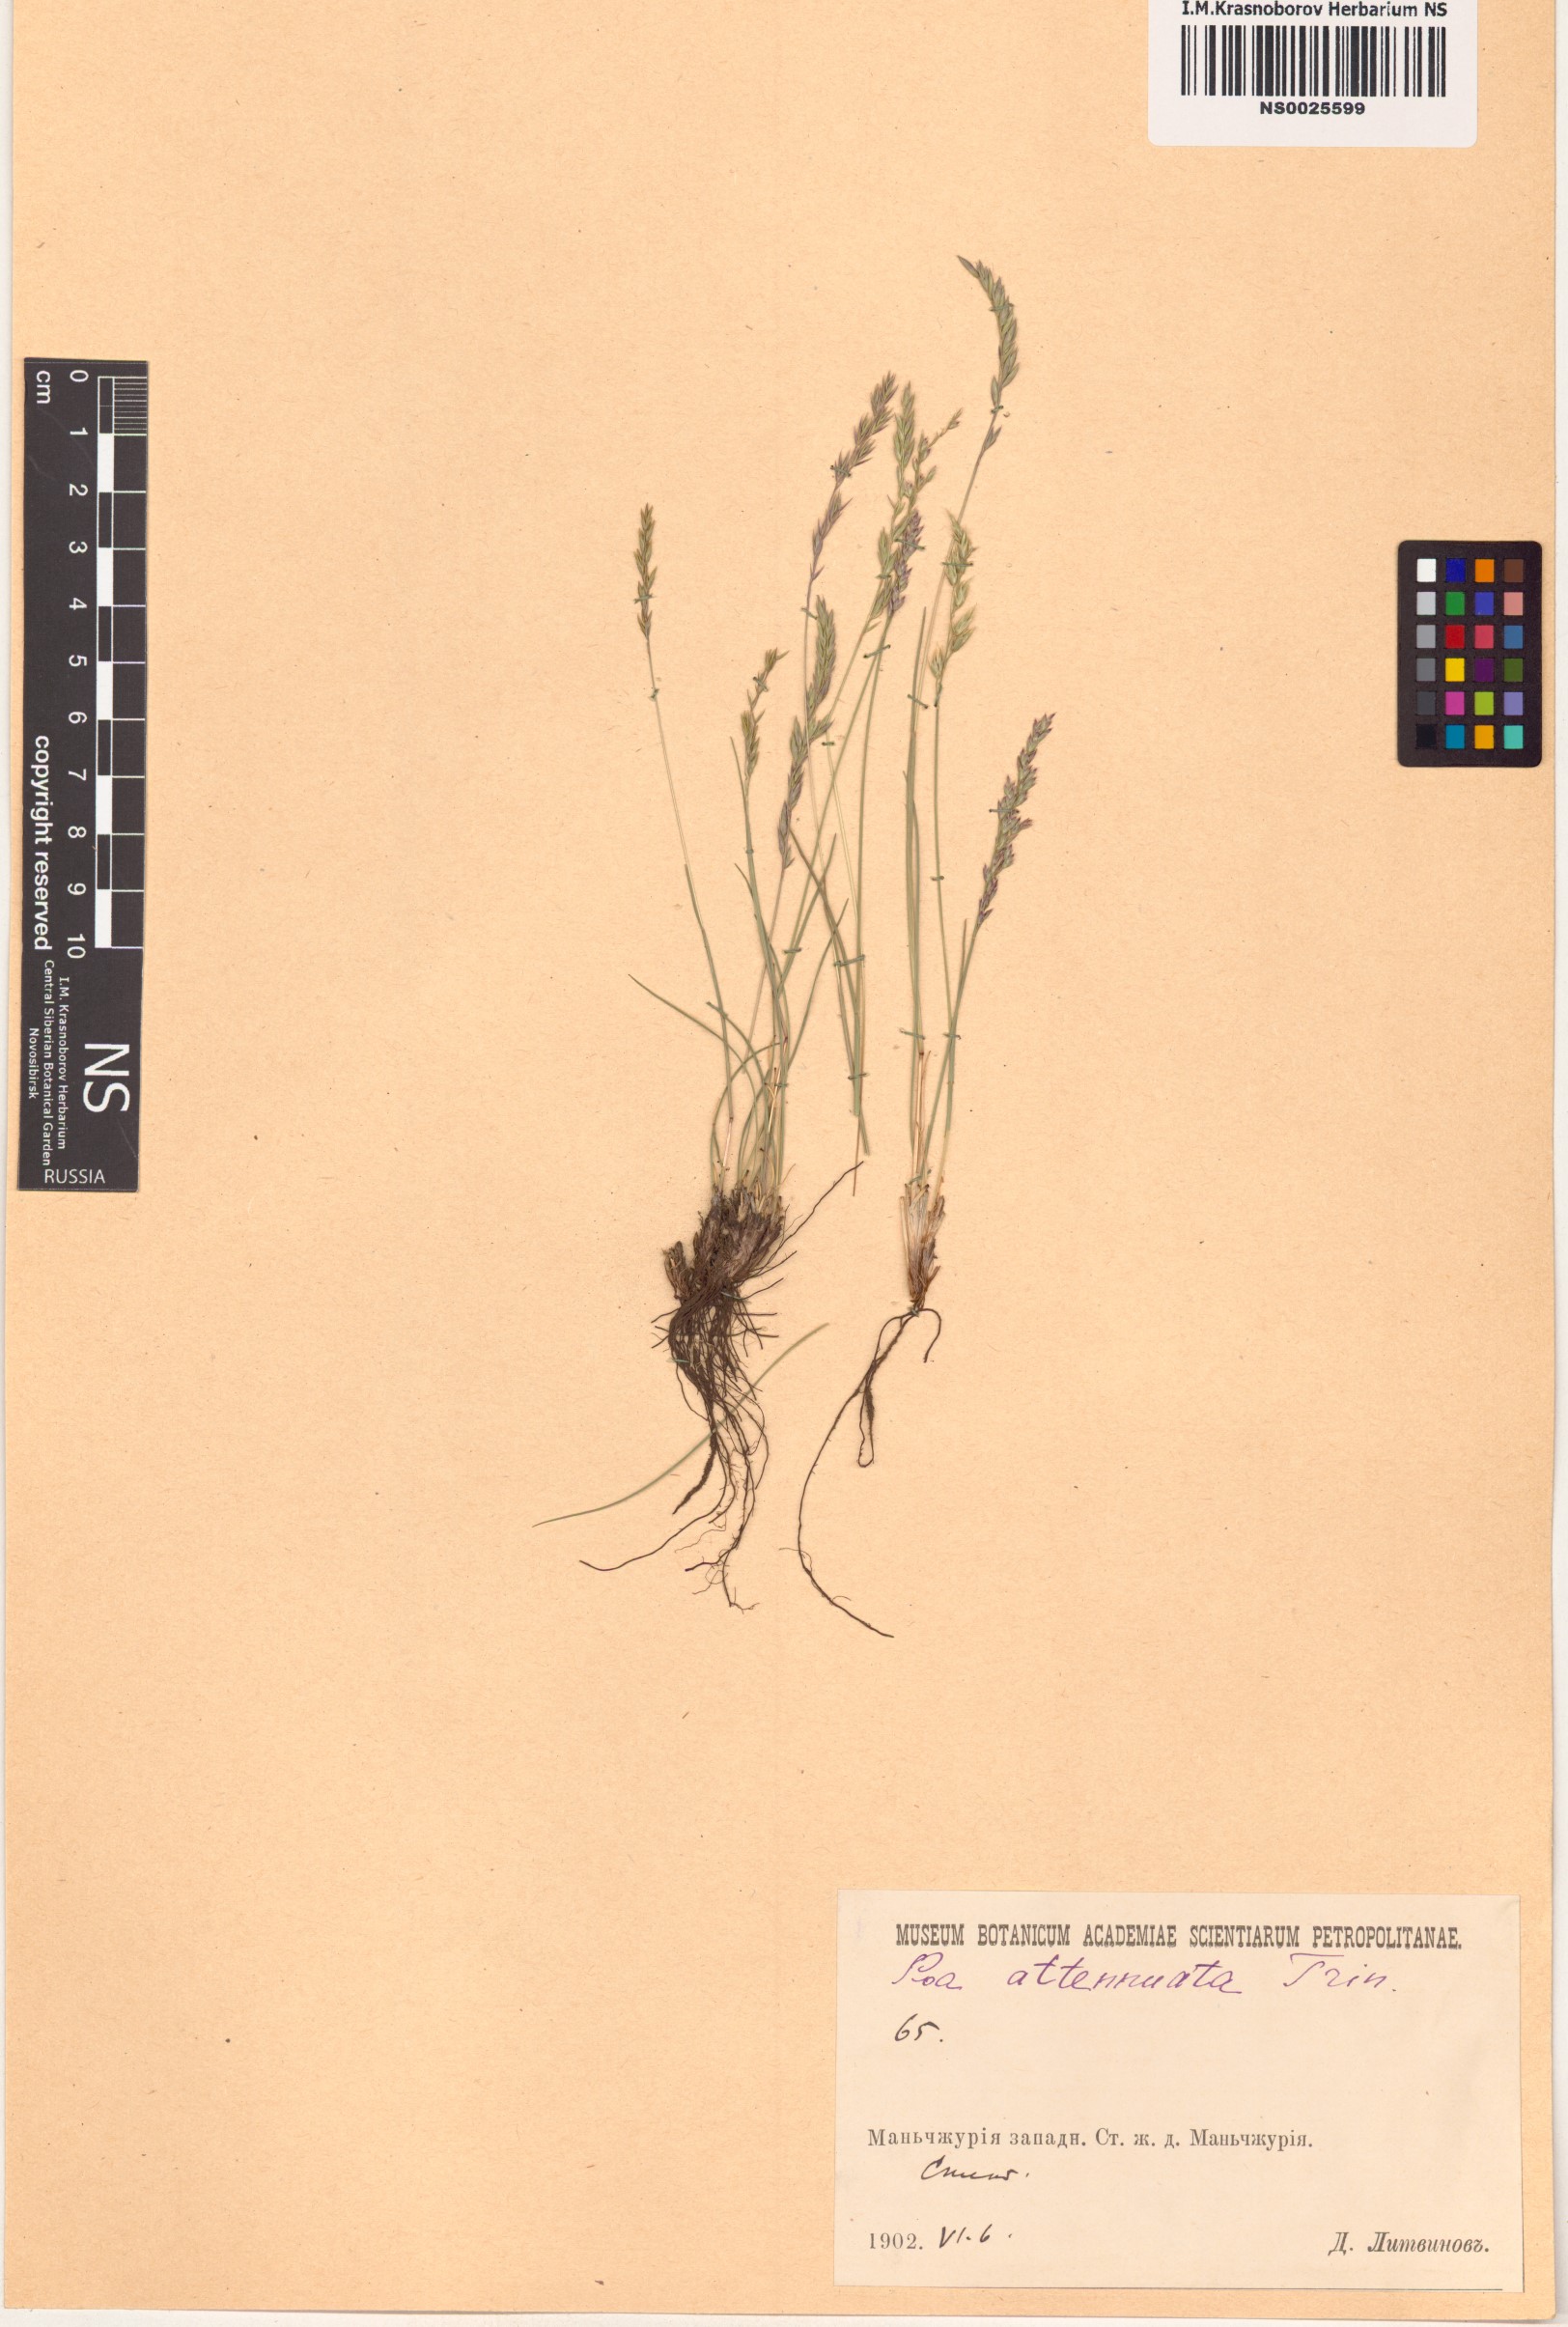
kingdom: Plantae
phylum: Tracheophyta
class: Liliopsida
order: Poales
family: Poaceae
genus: Poa
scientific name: Poa attenuata
